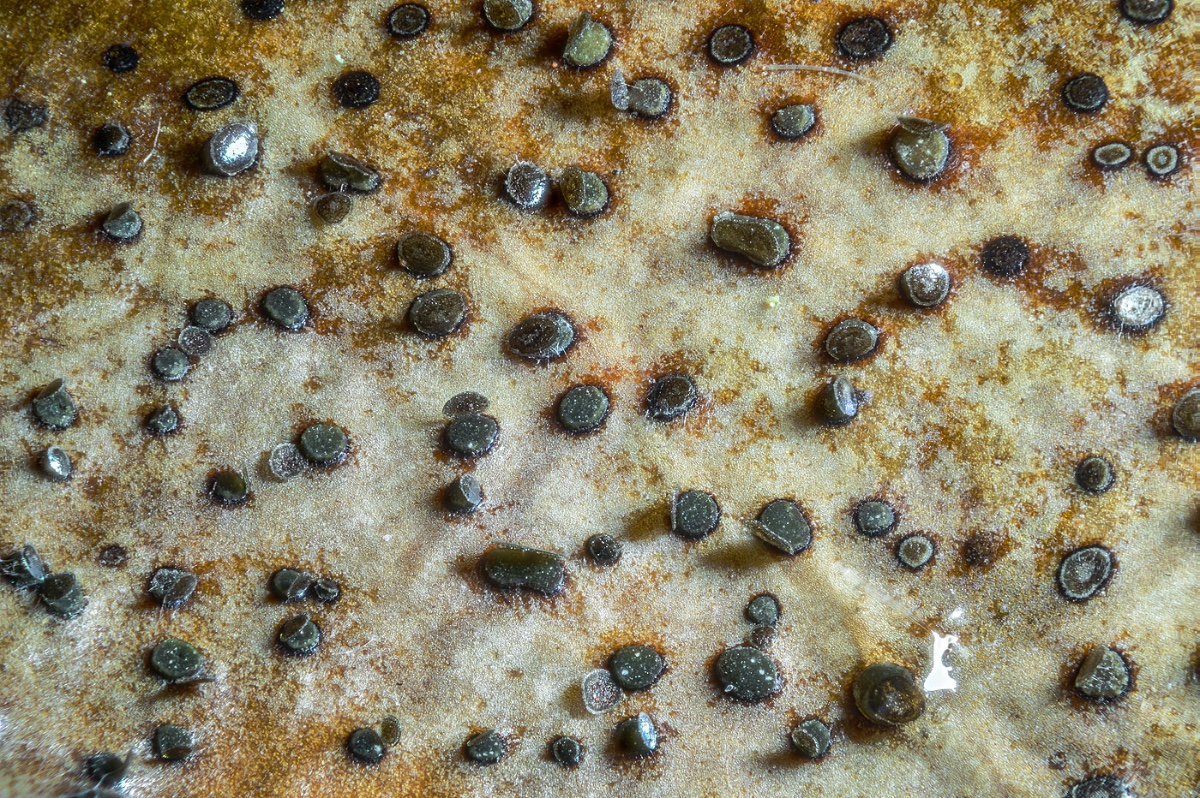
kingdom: Fungi
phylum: Ascomycota
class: Leotiomycetes
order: Helotiales
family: Cenangiaceae
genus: Trochila
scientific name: Trochila ilicina
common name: kristtorn-lågskive
